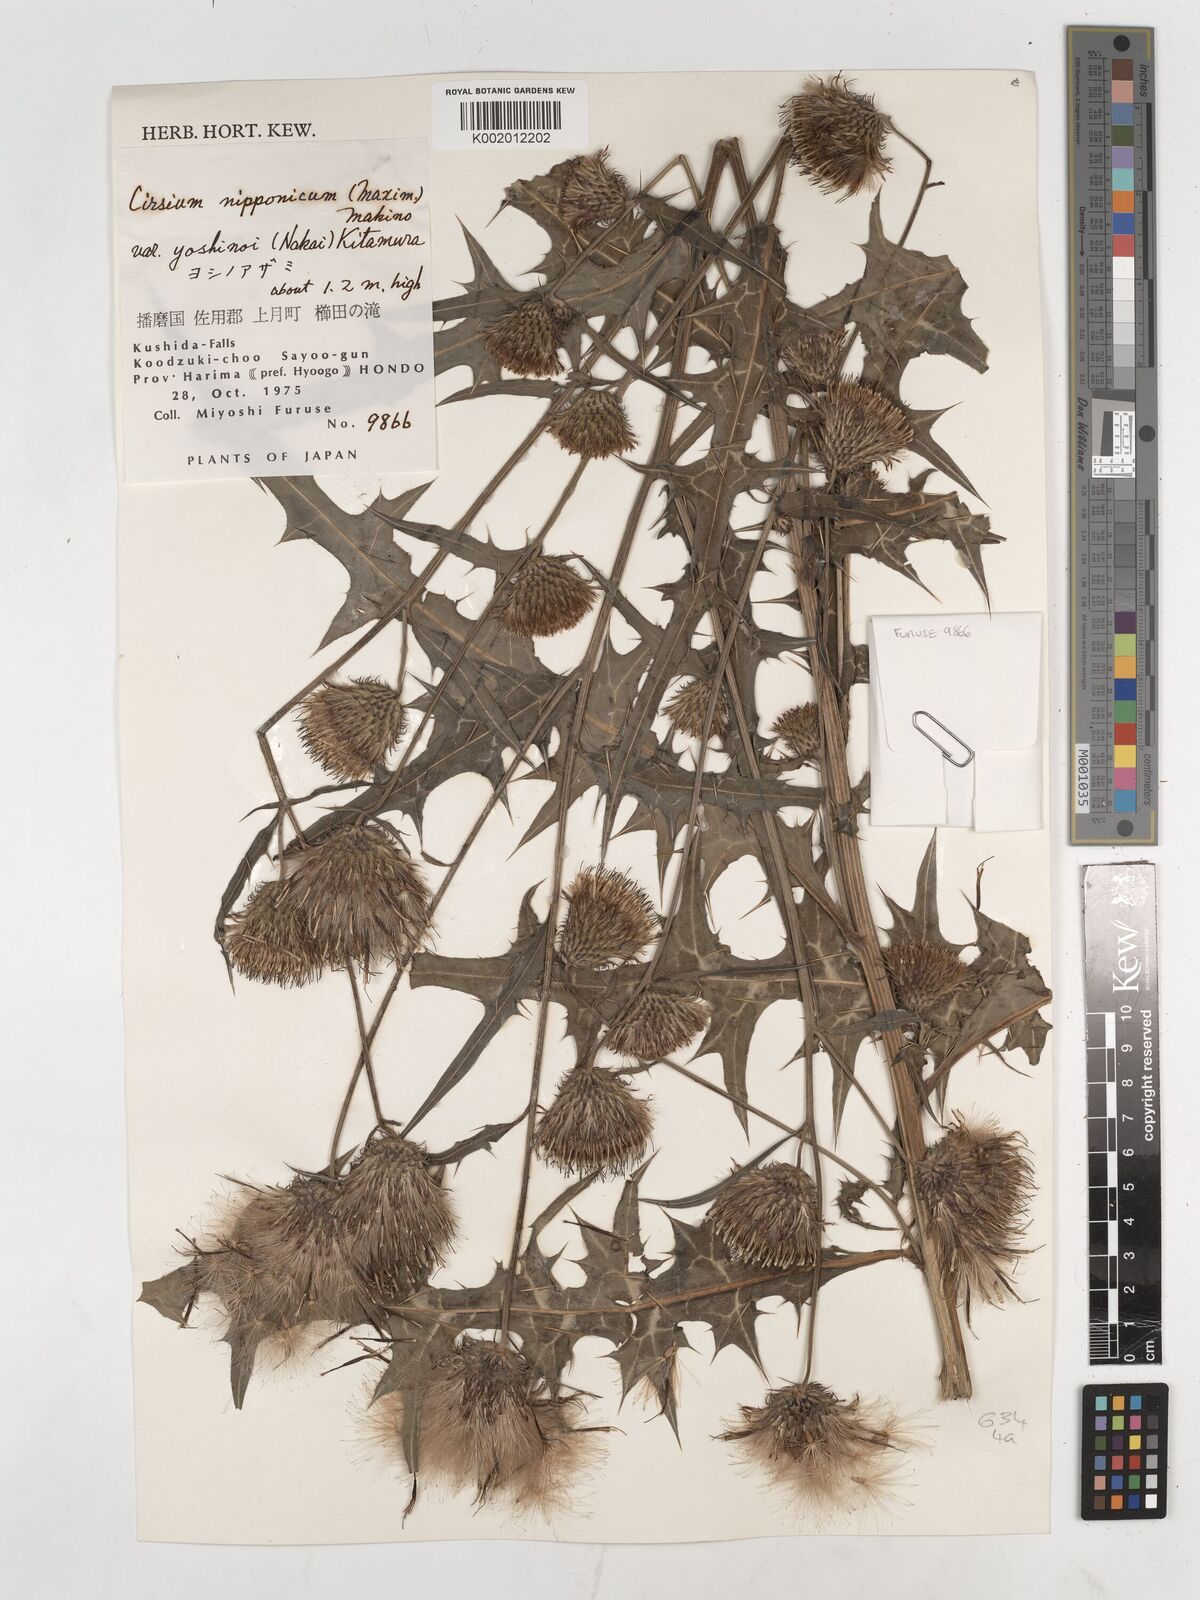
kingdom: Plantae
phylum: Tracheophyta
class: Magnoliopsida
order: Asterales
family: Asteraceae
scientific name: Asteraceae
